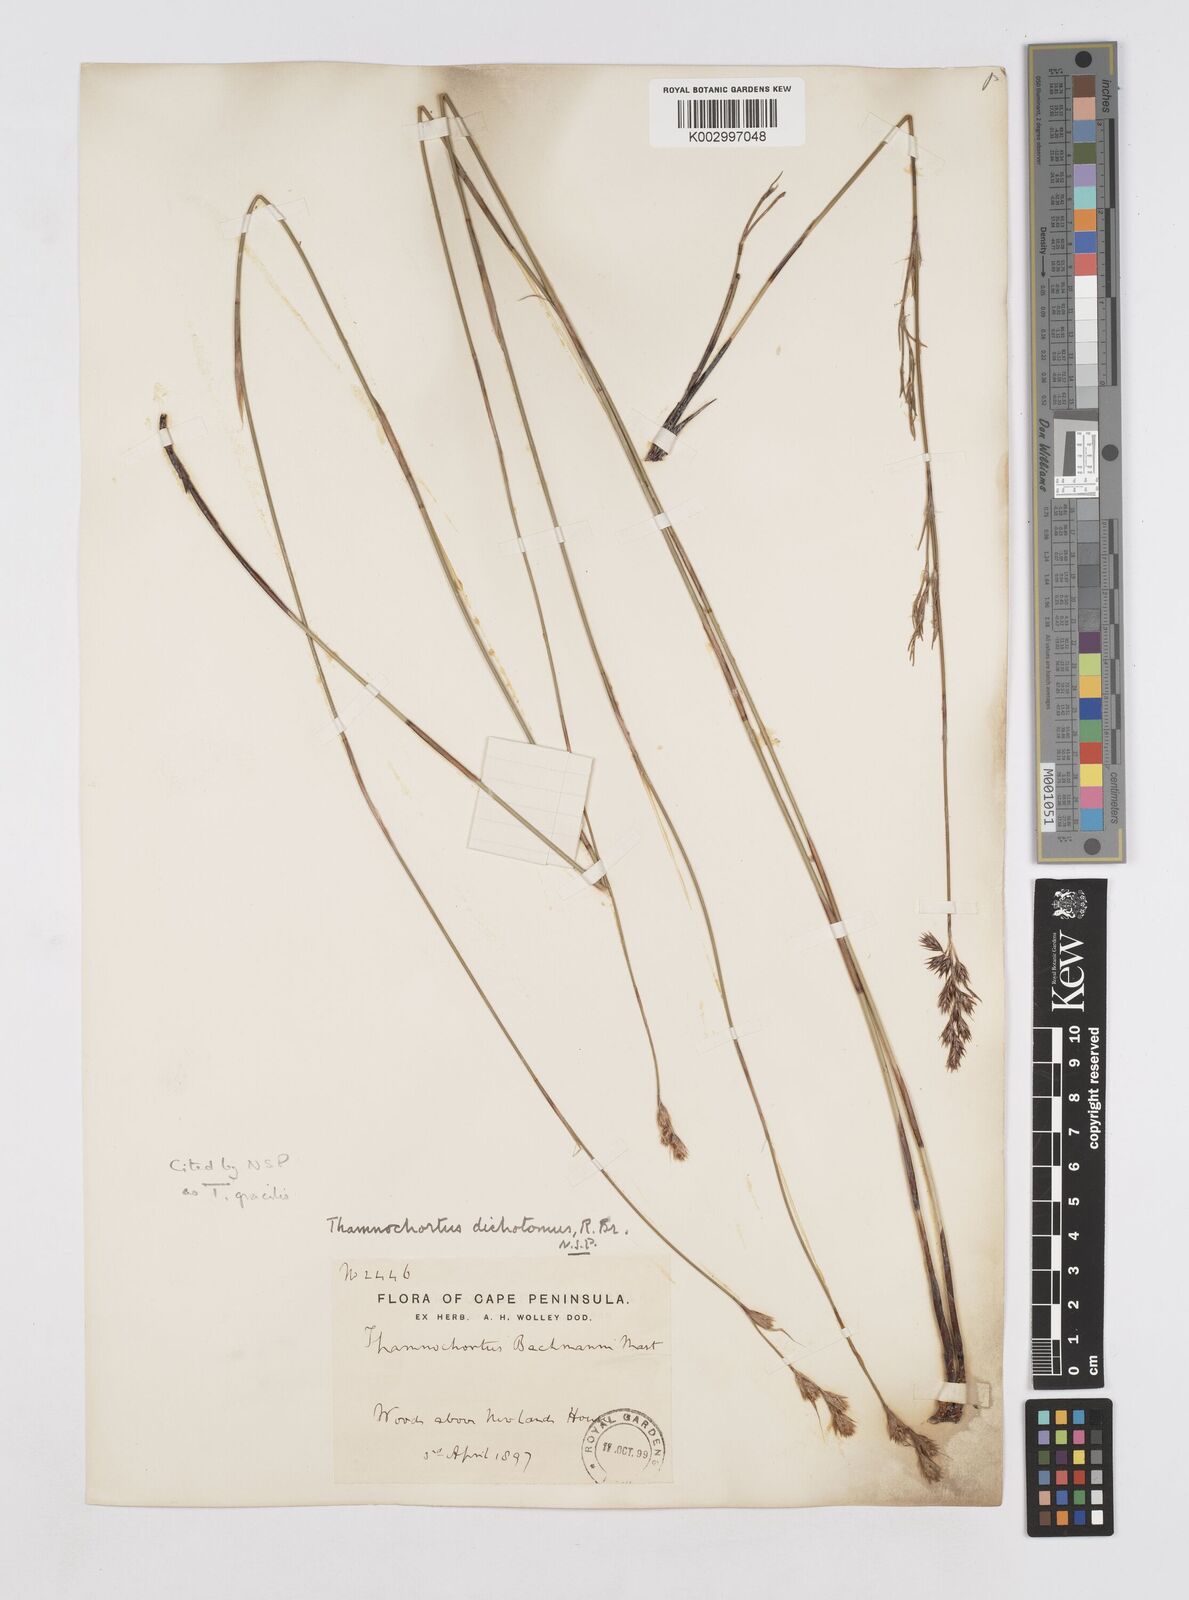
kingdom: Plantae
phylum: Tracheophyta
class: Liliopsida
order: Poales
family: Restionaceae
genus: Thamnochortus
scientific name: Thamnochortus gracilis
